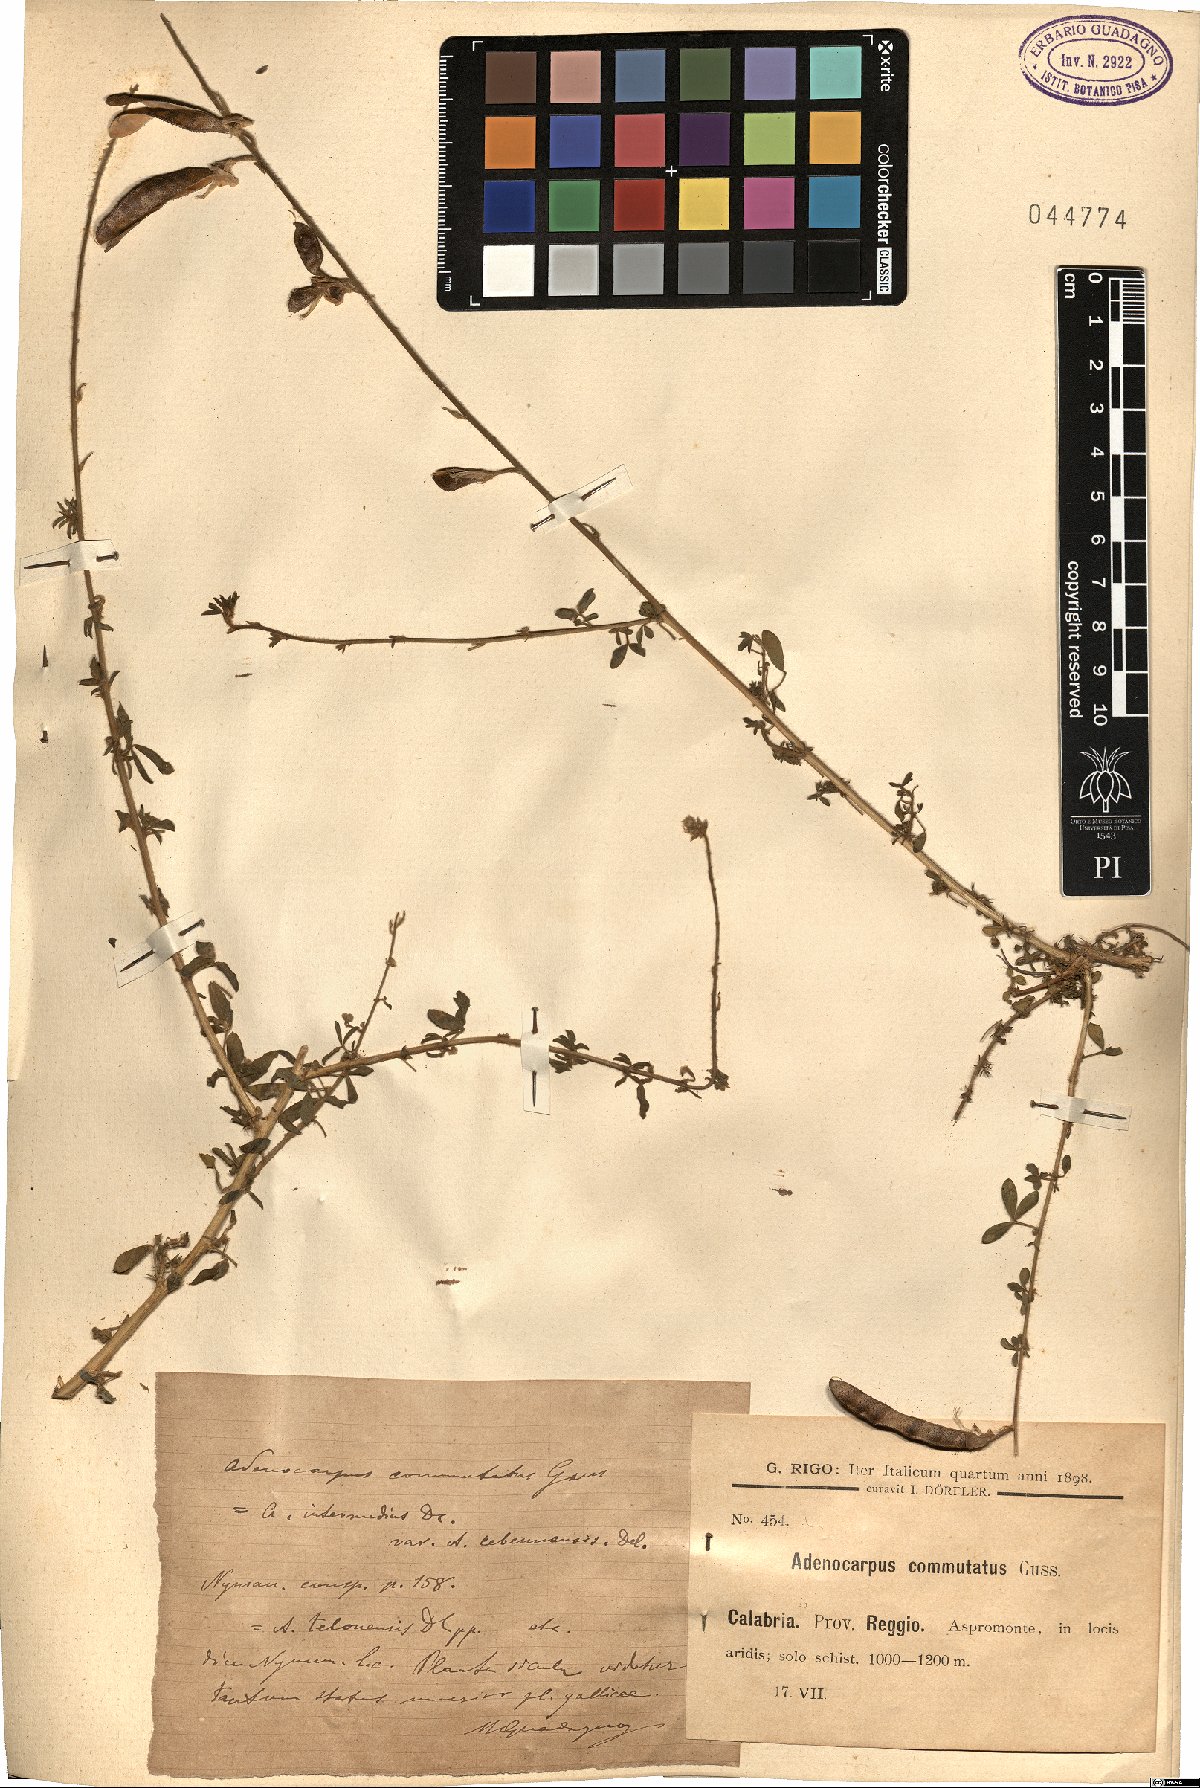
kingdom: Plantae
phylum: Tracheophyta
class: Magnoliopsida
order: Fabales
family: Fabaceae
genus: Adenocarpus
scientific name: Adenocarpus commutatus
